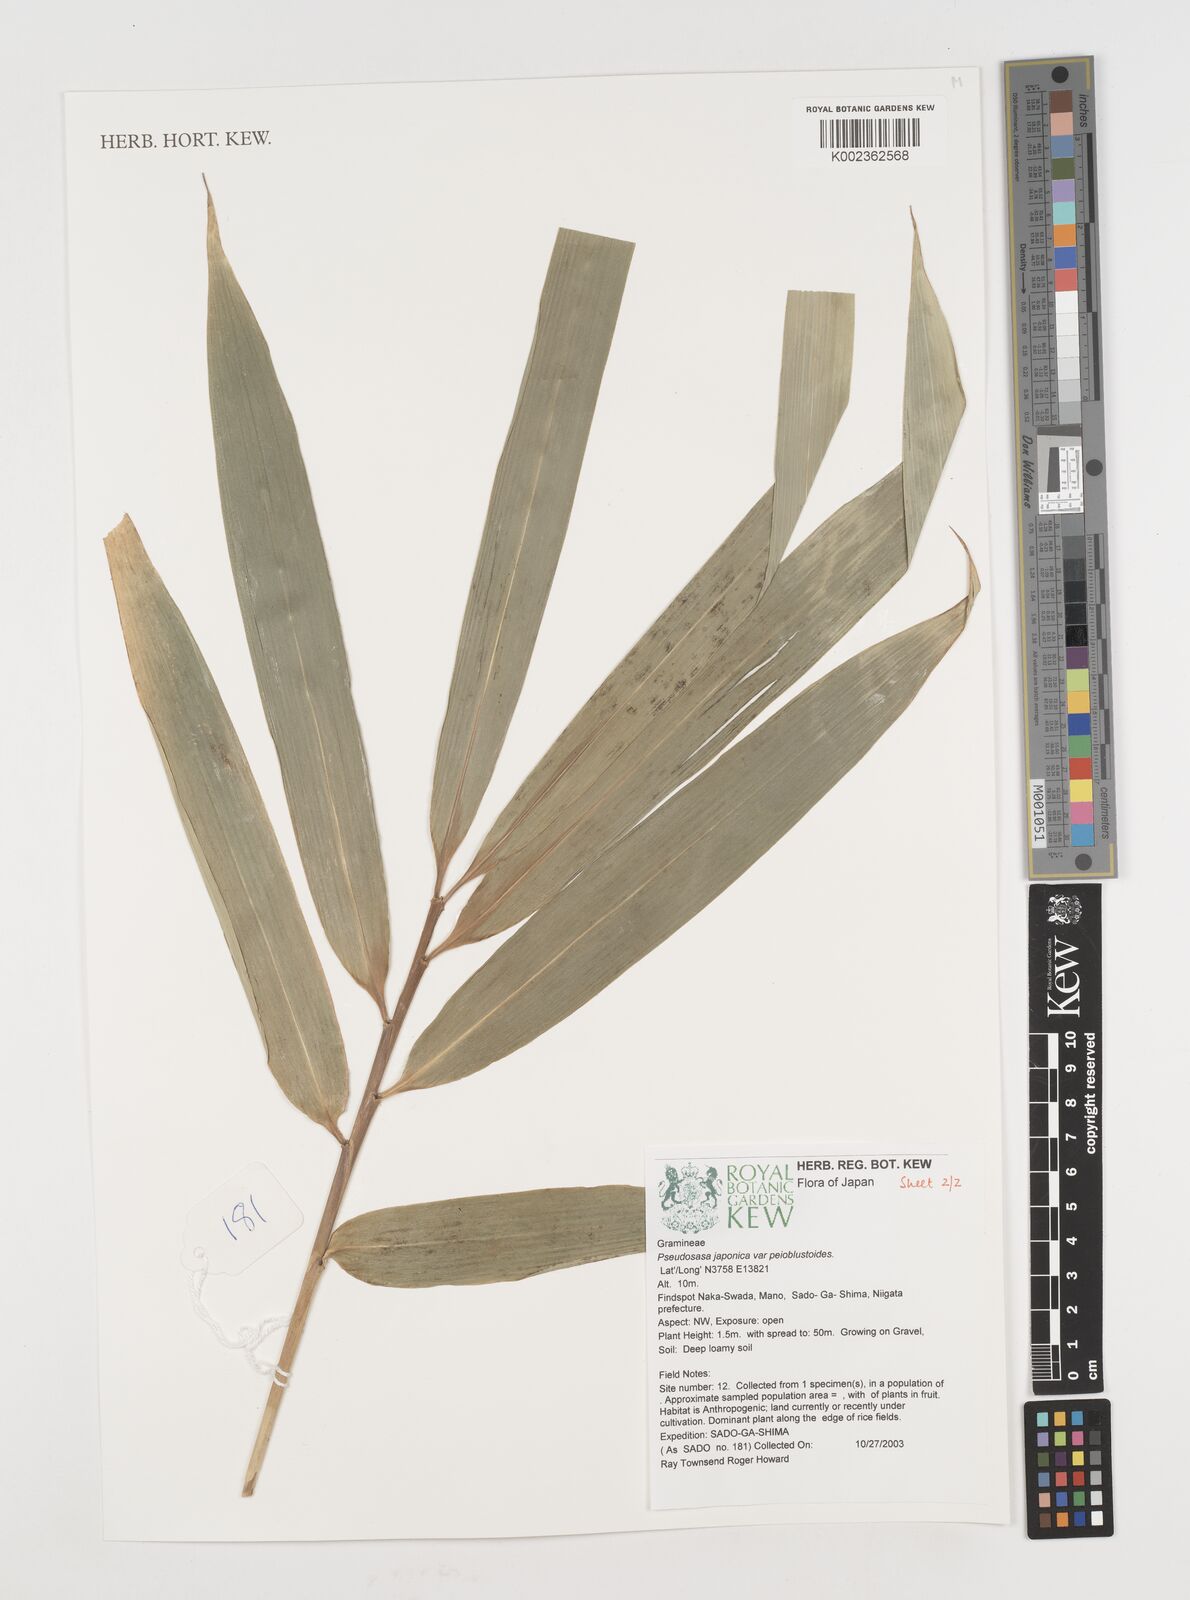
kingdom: Plantae
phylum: Tracheophyta
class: Liliopsida
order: Poales
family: Poaceae
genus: Pseudosasa
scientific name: Pseudosasa japonica
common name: Arrow bamboo
